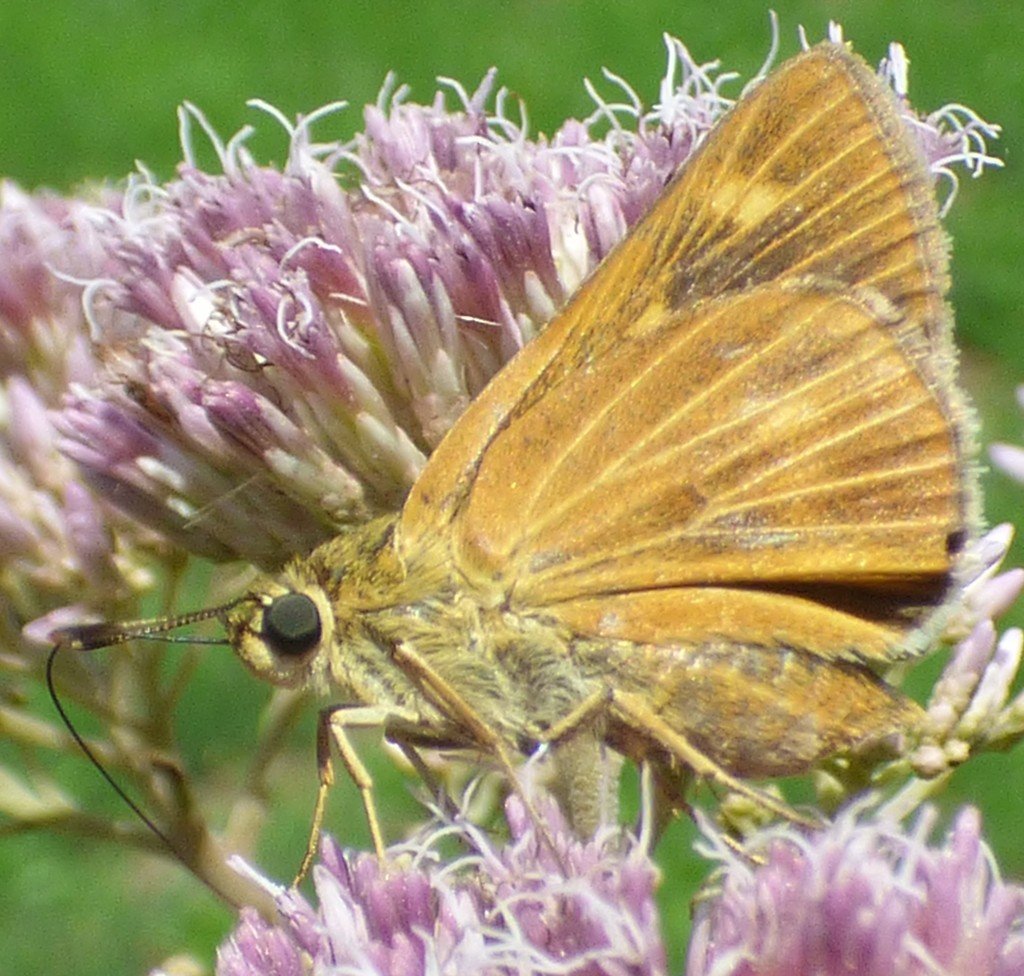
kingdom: Animalia
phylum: Arthropoda
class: Insecta
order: Lepidoptera
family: Hesperiidae
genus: Problema
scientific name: Problema byssus
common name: Byssus Skipper
